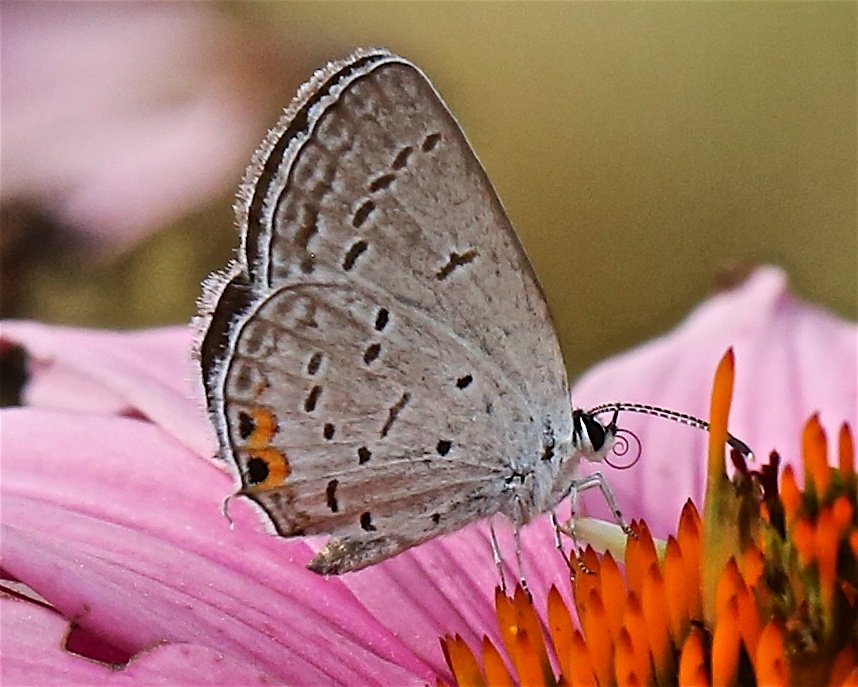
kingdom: Animalia
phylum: Arthropoda
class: Insecta
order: Lepidoptera
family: Lycaenidae
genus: Strymon
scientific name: Strymon acadica
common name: Acadian Hairstreak
